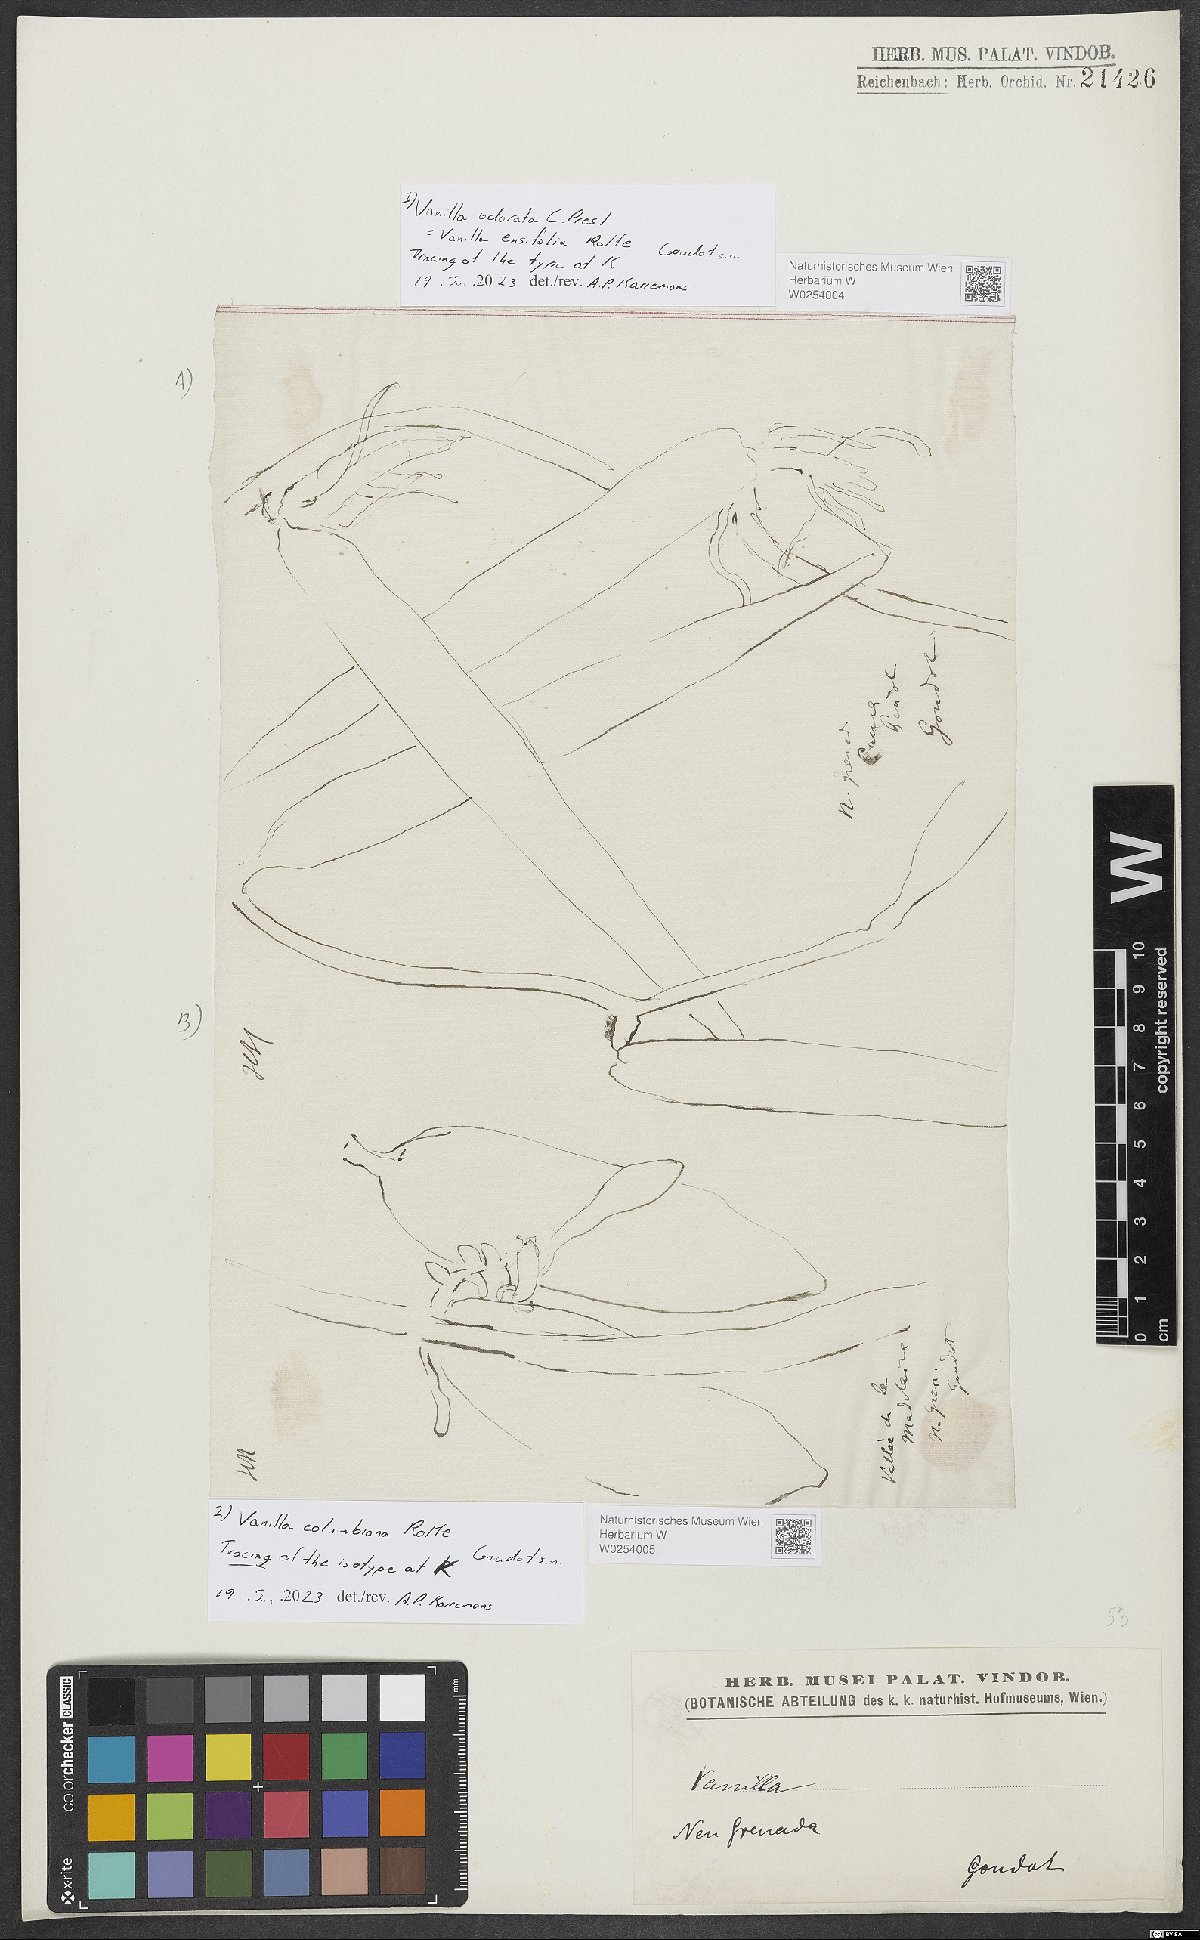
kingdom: Plantae
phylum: Tracheophyta
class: Liliopsida
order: Asparagales
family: Orchidaceae
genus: Vanilla
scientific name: Vanilla odorata
